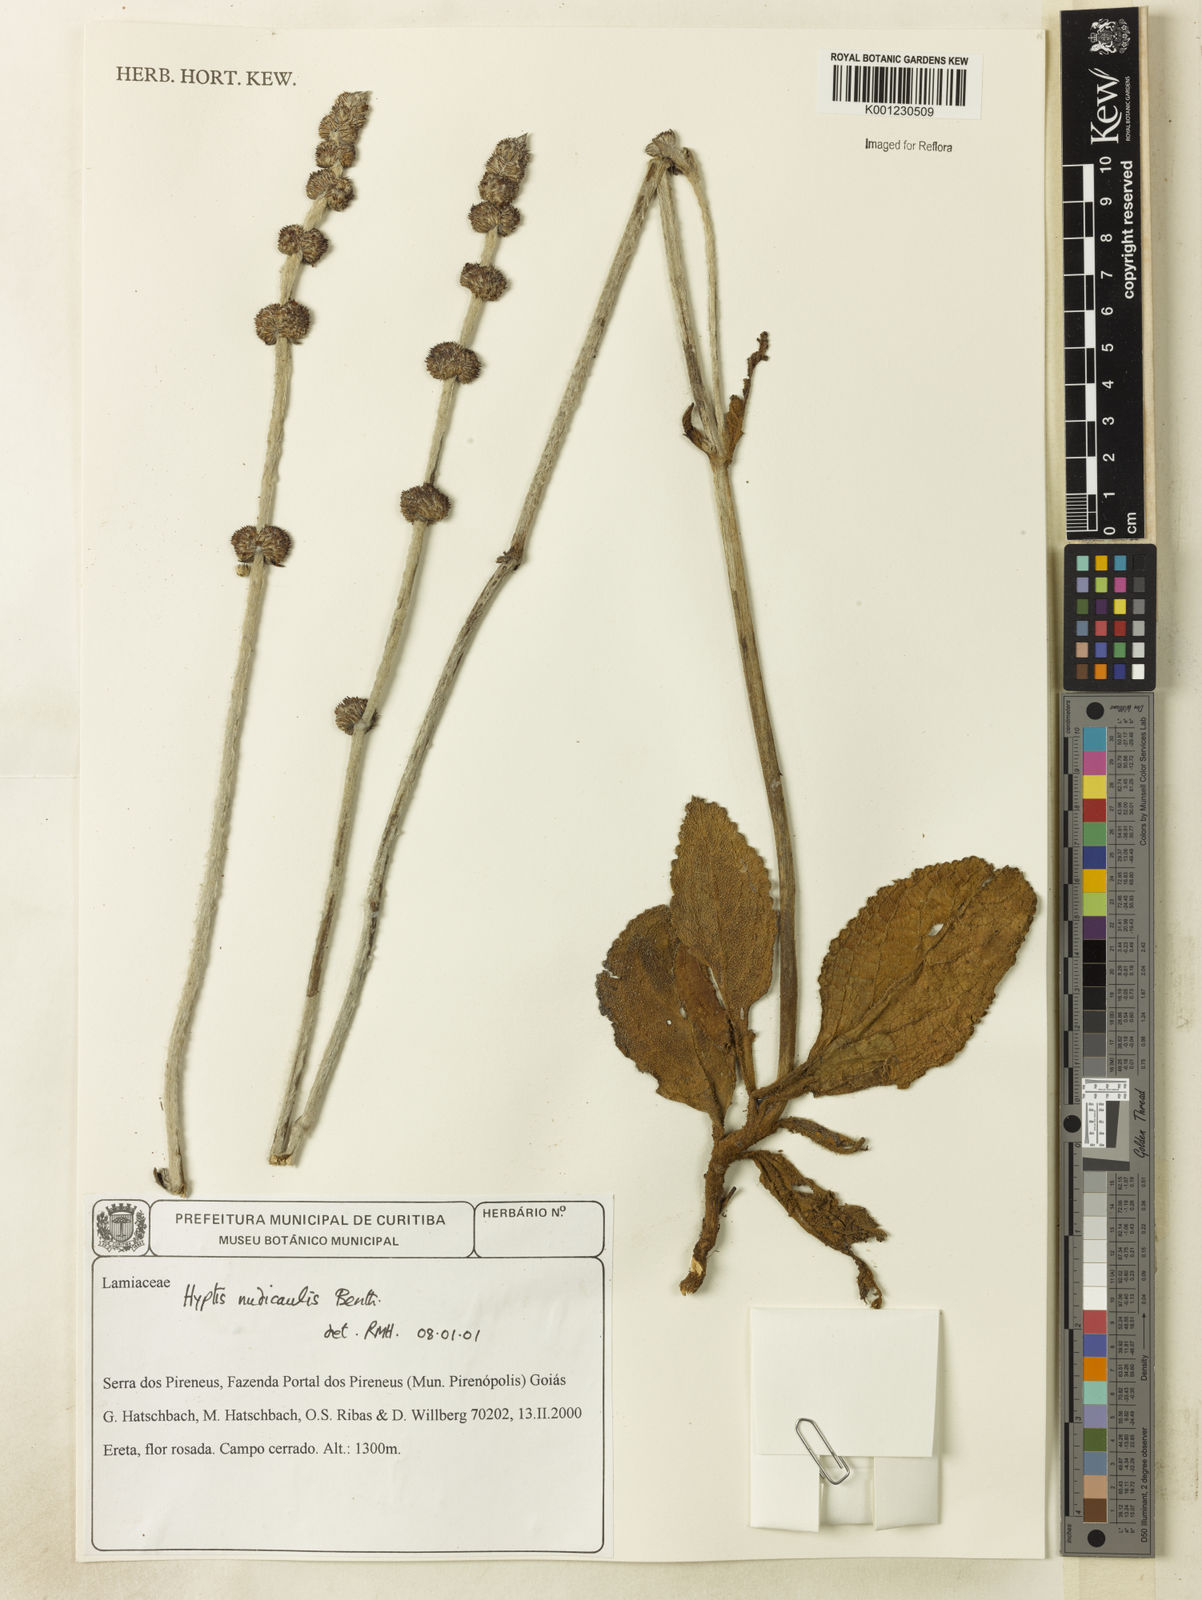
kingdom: Plantae
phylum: Tracheophyta
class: Magnoliopsida
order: Lamiales
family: Lamiaceae
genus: Hyptis
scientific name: Hyptis nudicaulis
